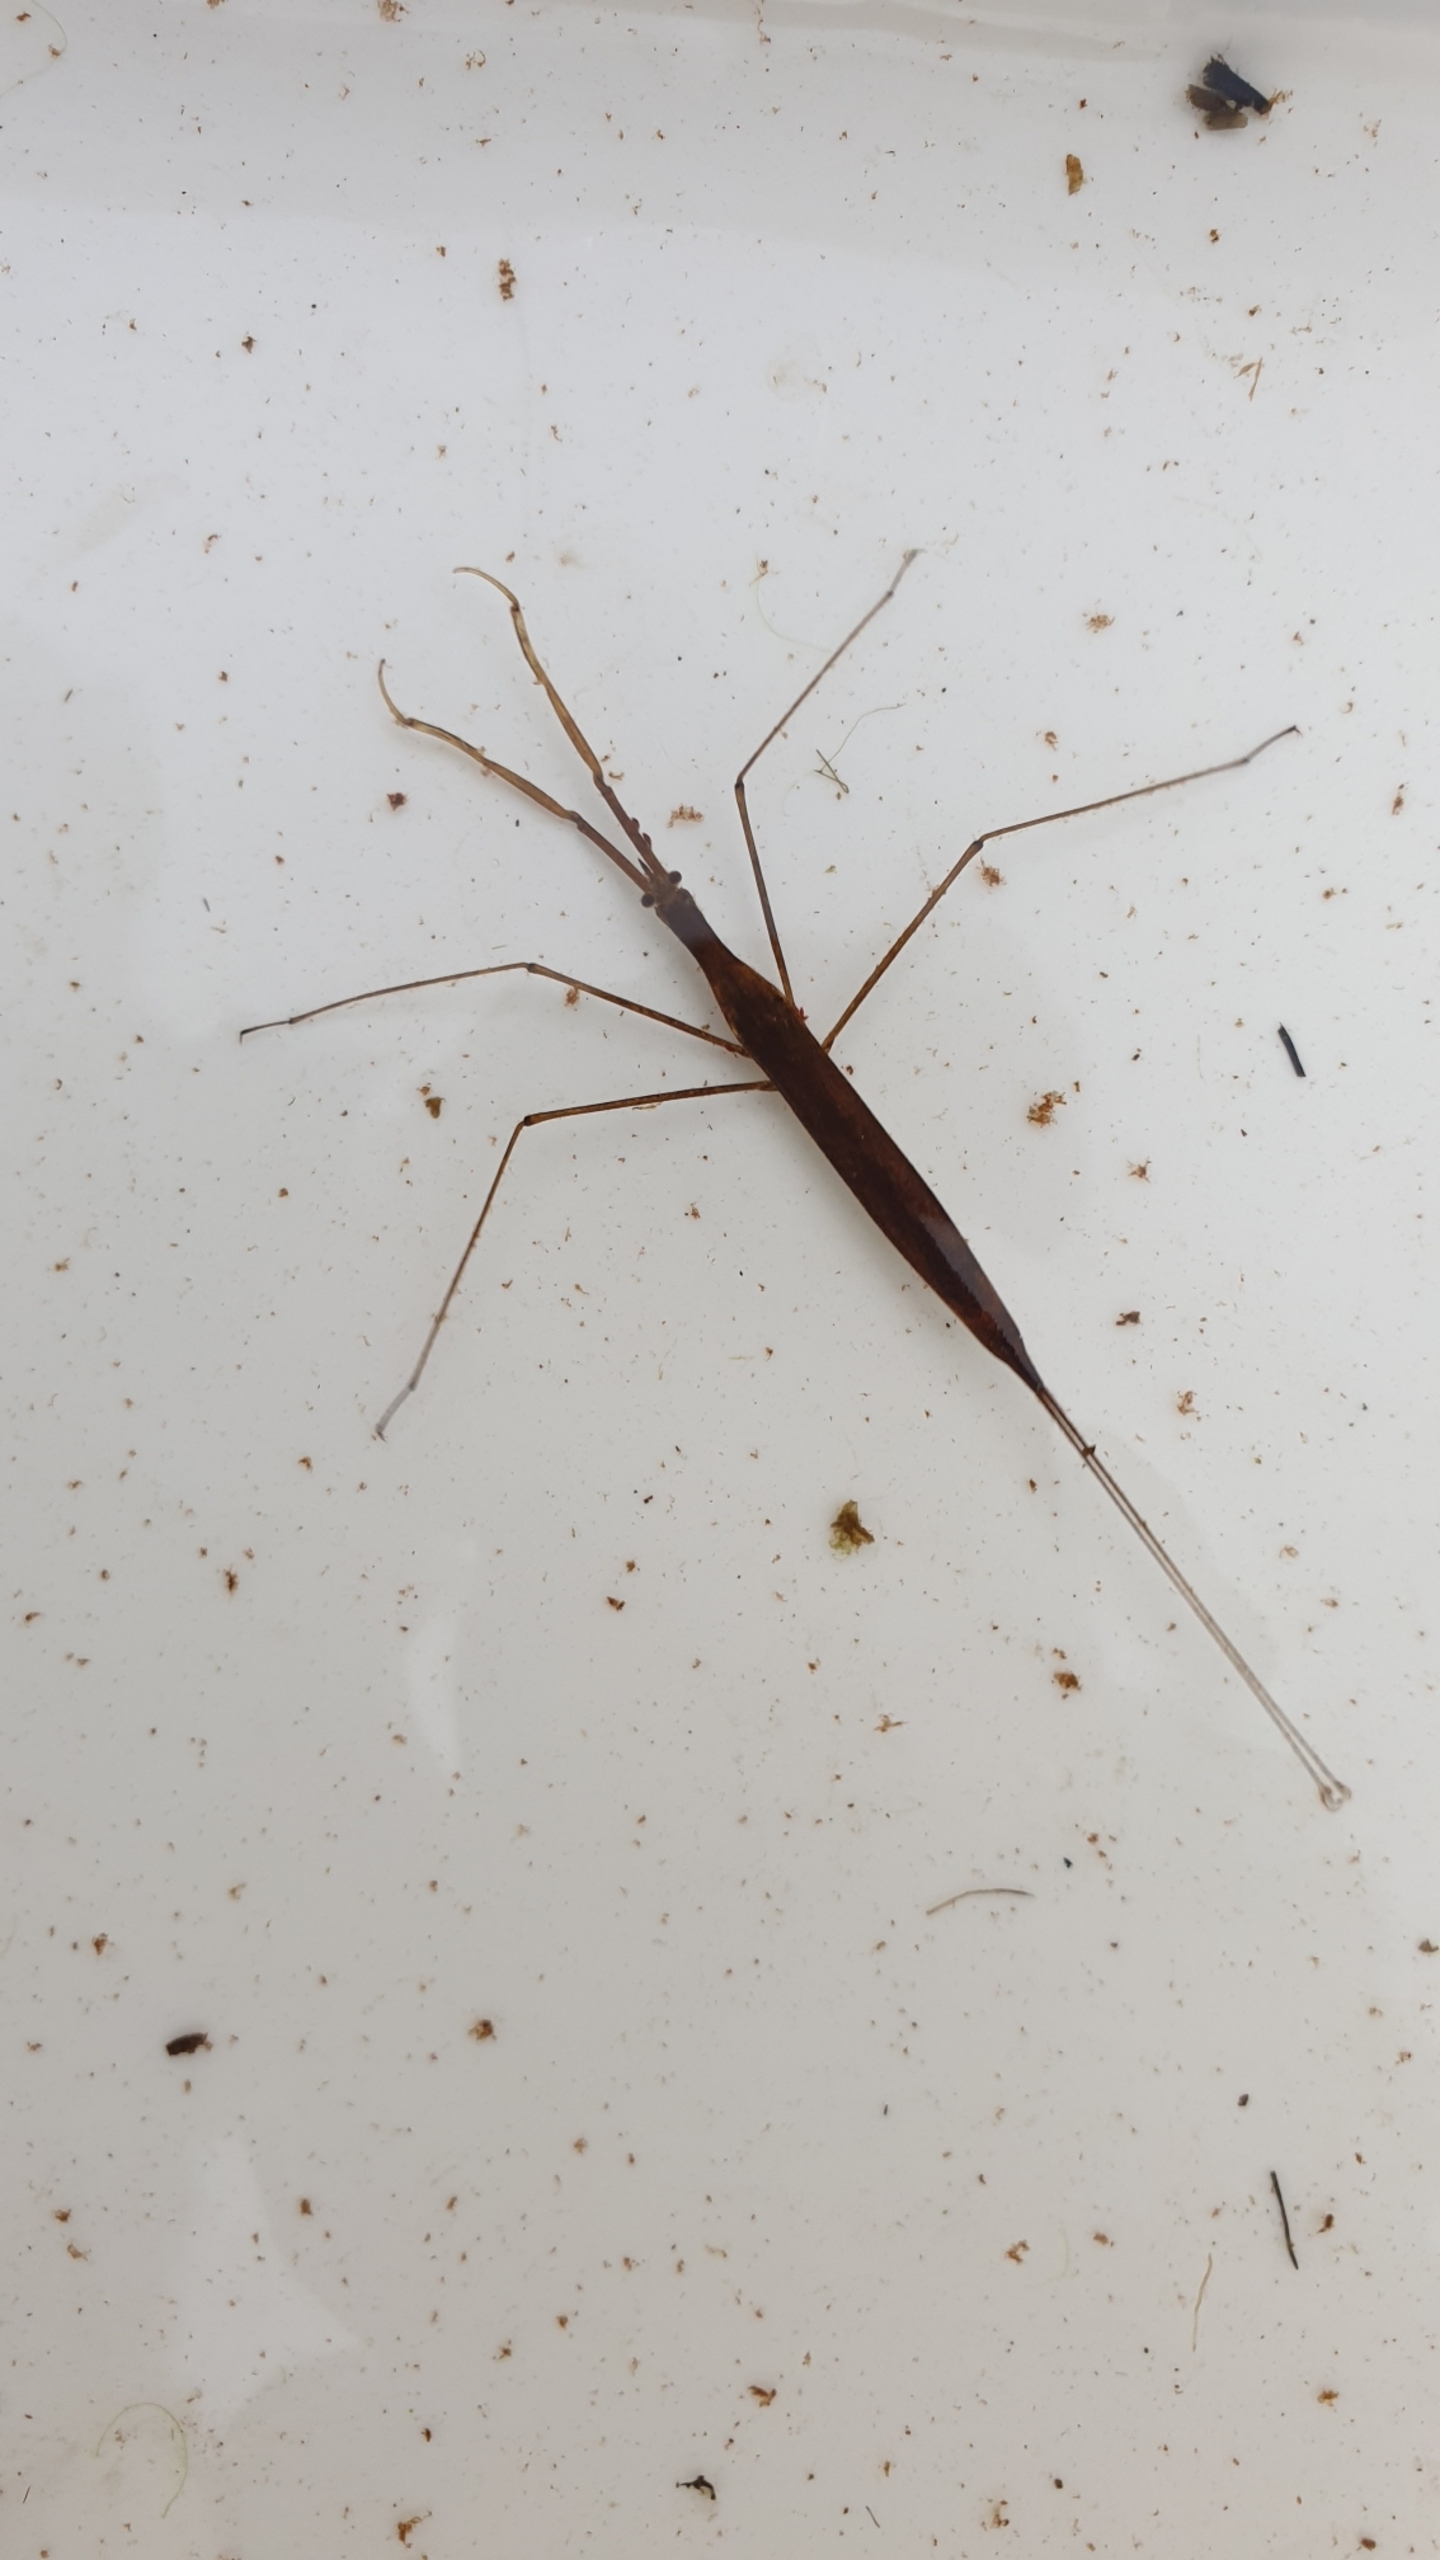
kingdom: Animalia
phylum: Arthropoda
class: Insecta
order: Hemiptera
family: Nepidae
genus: Ranatra
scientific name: Ranatra linearis
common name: Stavtæge
